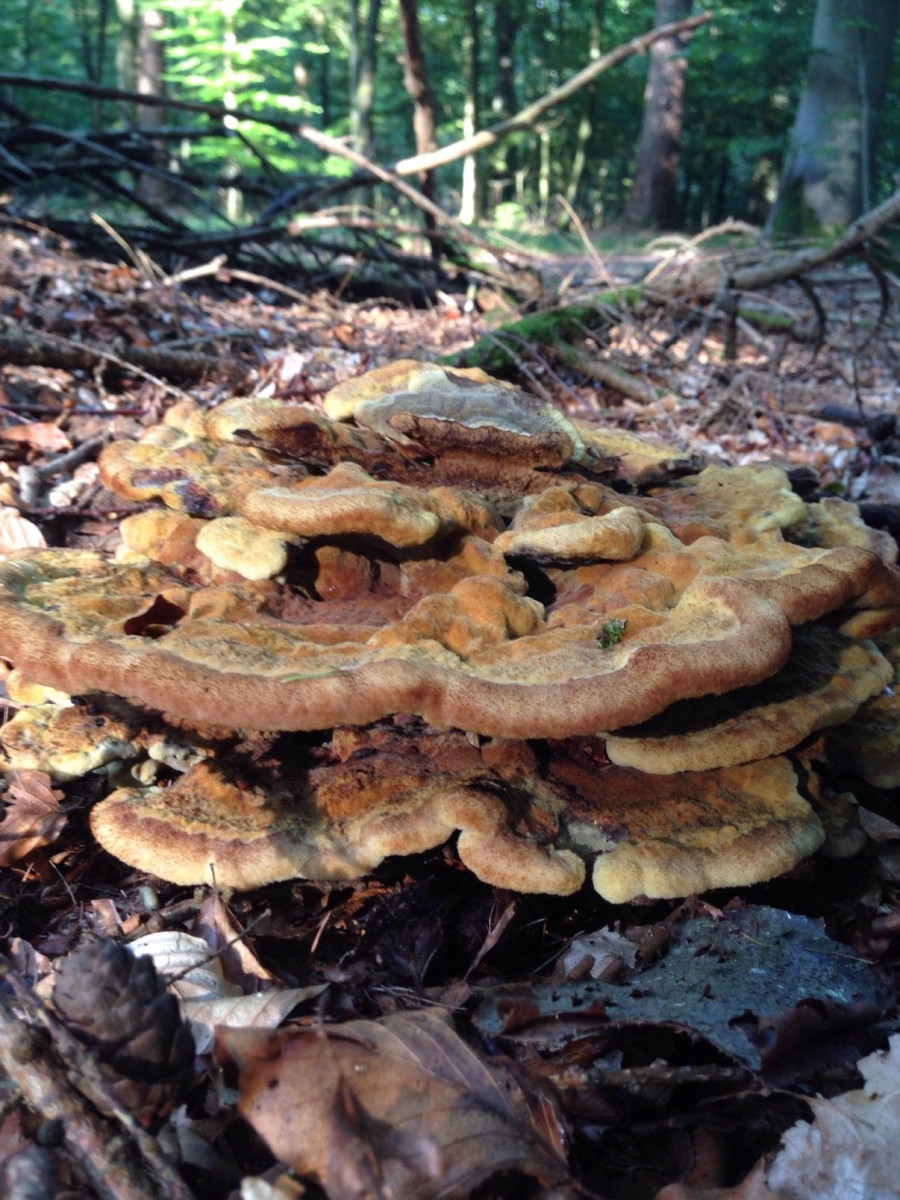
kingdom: Fungi
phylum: Basidiomycota
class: Agaricomycetes
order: Polyporales
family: Laetiporaceae
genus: Phaeolus
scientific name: Phaeolus schweinitzii
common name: brunporesvamp
